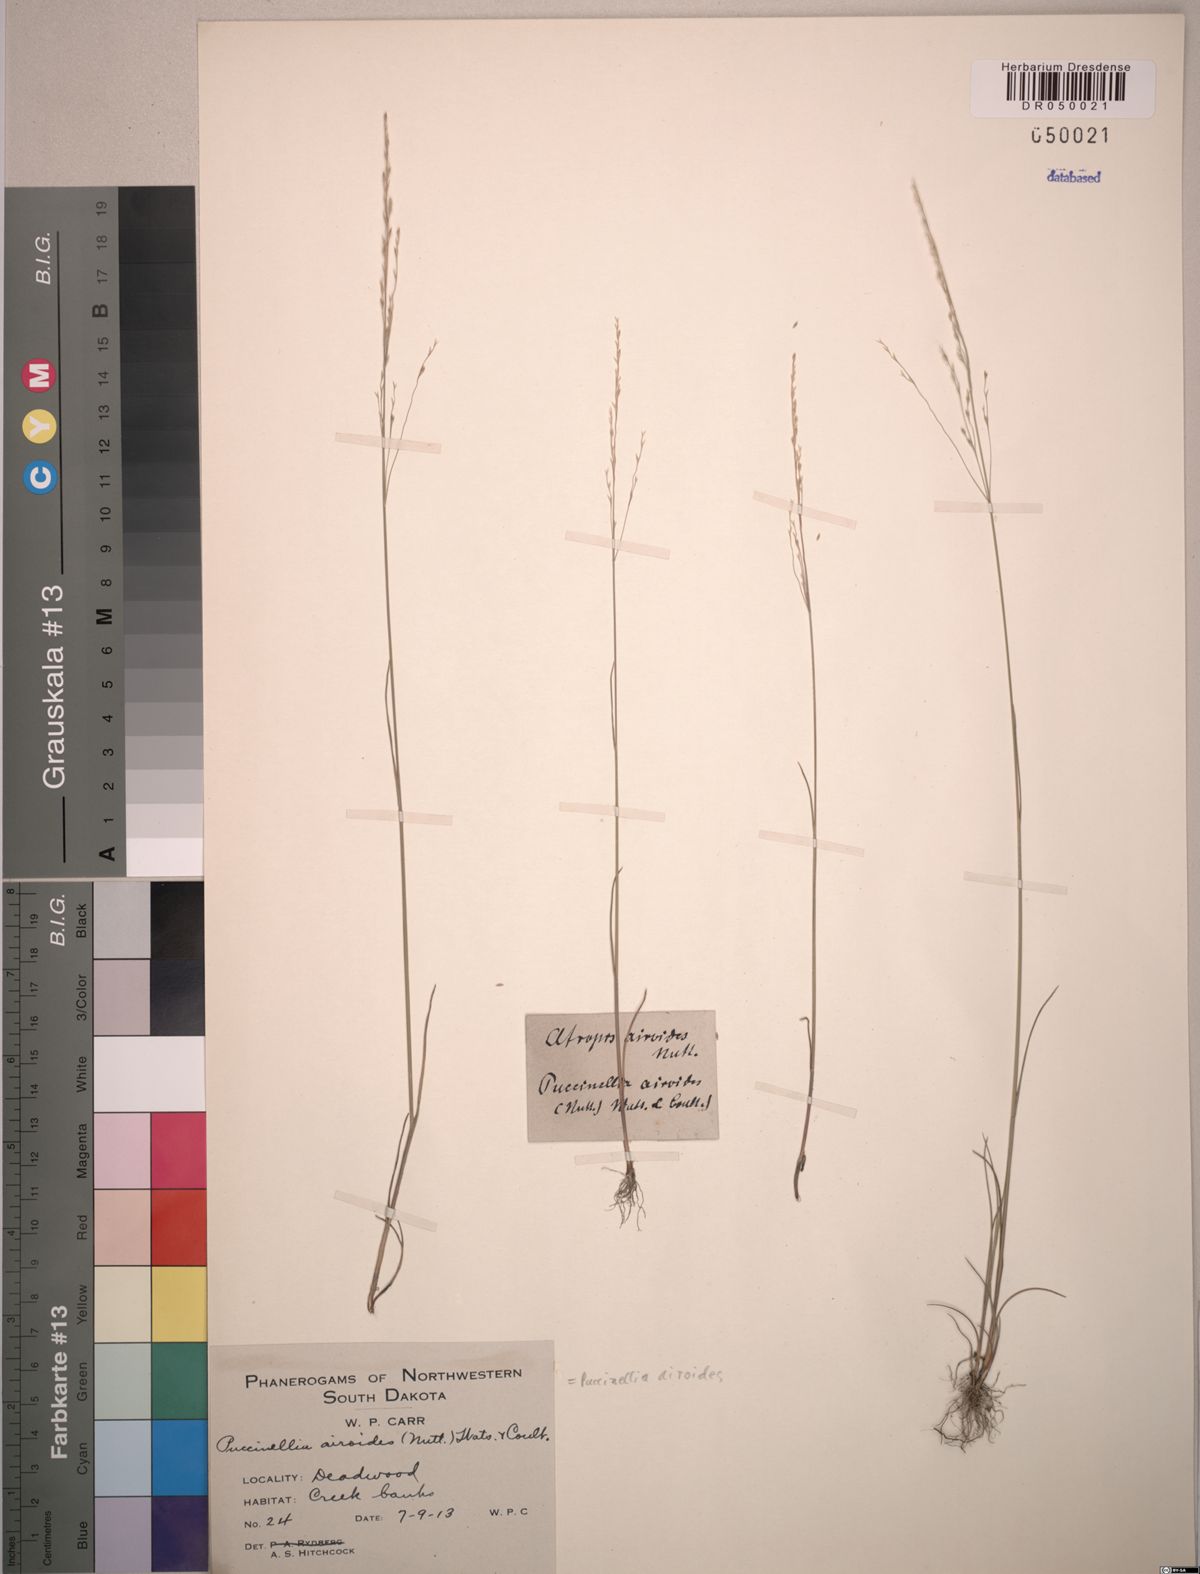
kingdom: Plantae
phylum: Tracheophyta
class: Liliopsida
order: Poales
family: Poaceae
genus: Puccinellia
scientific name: Puccinellia nuttalliana
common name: Nuttall's alkali grass
